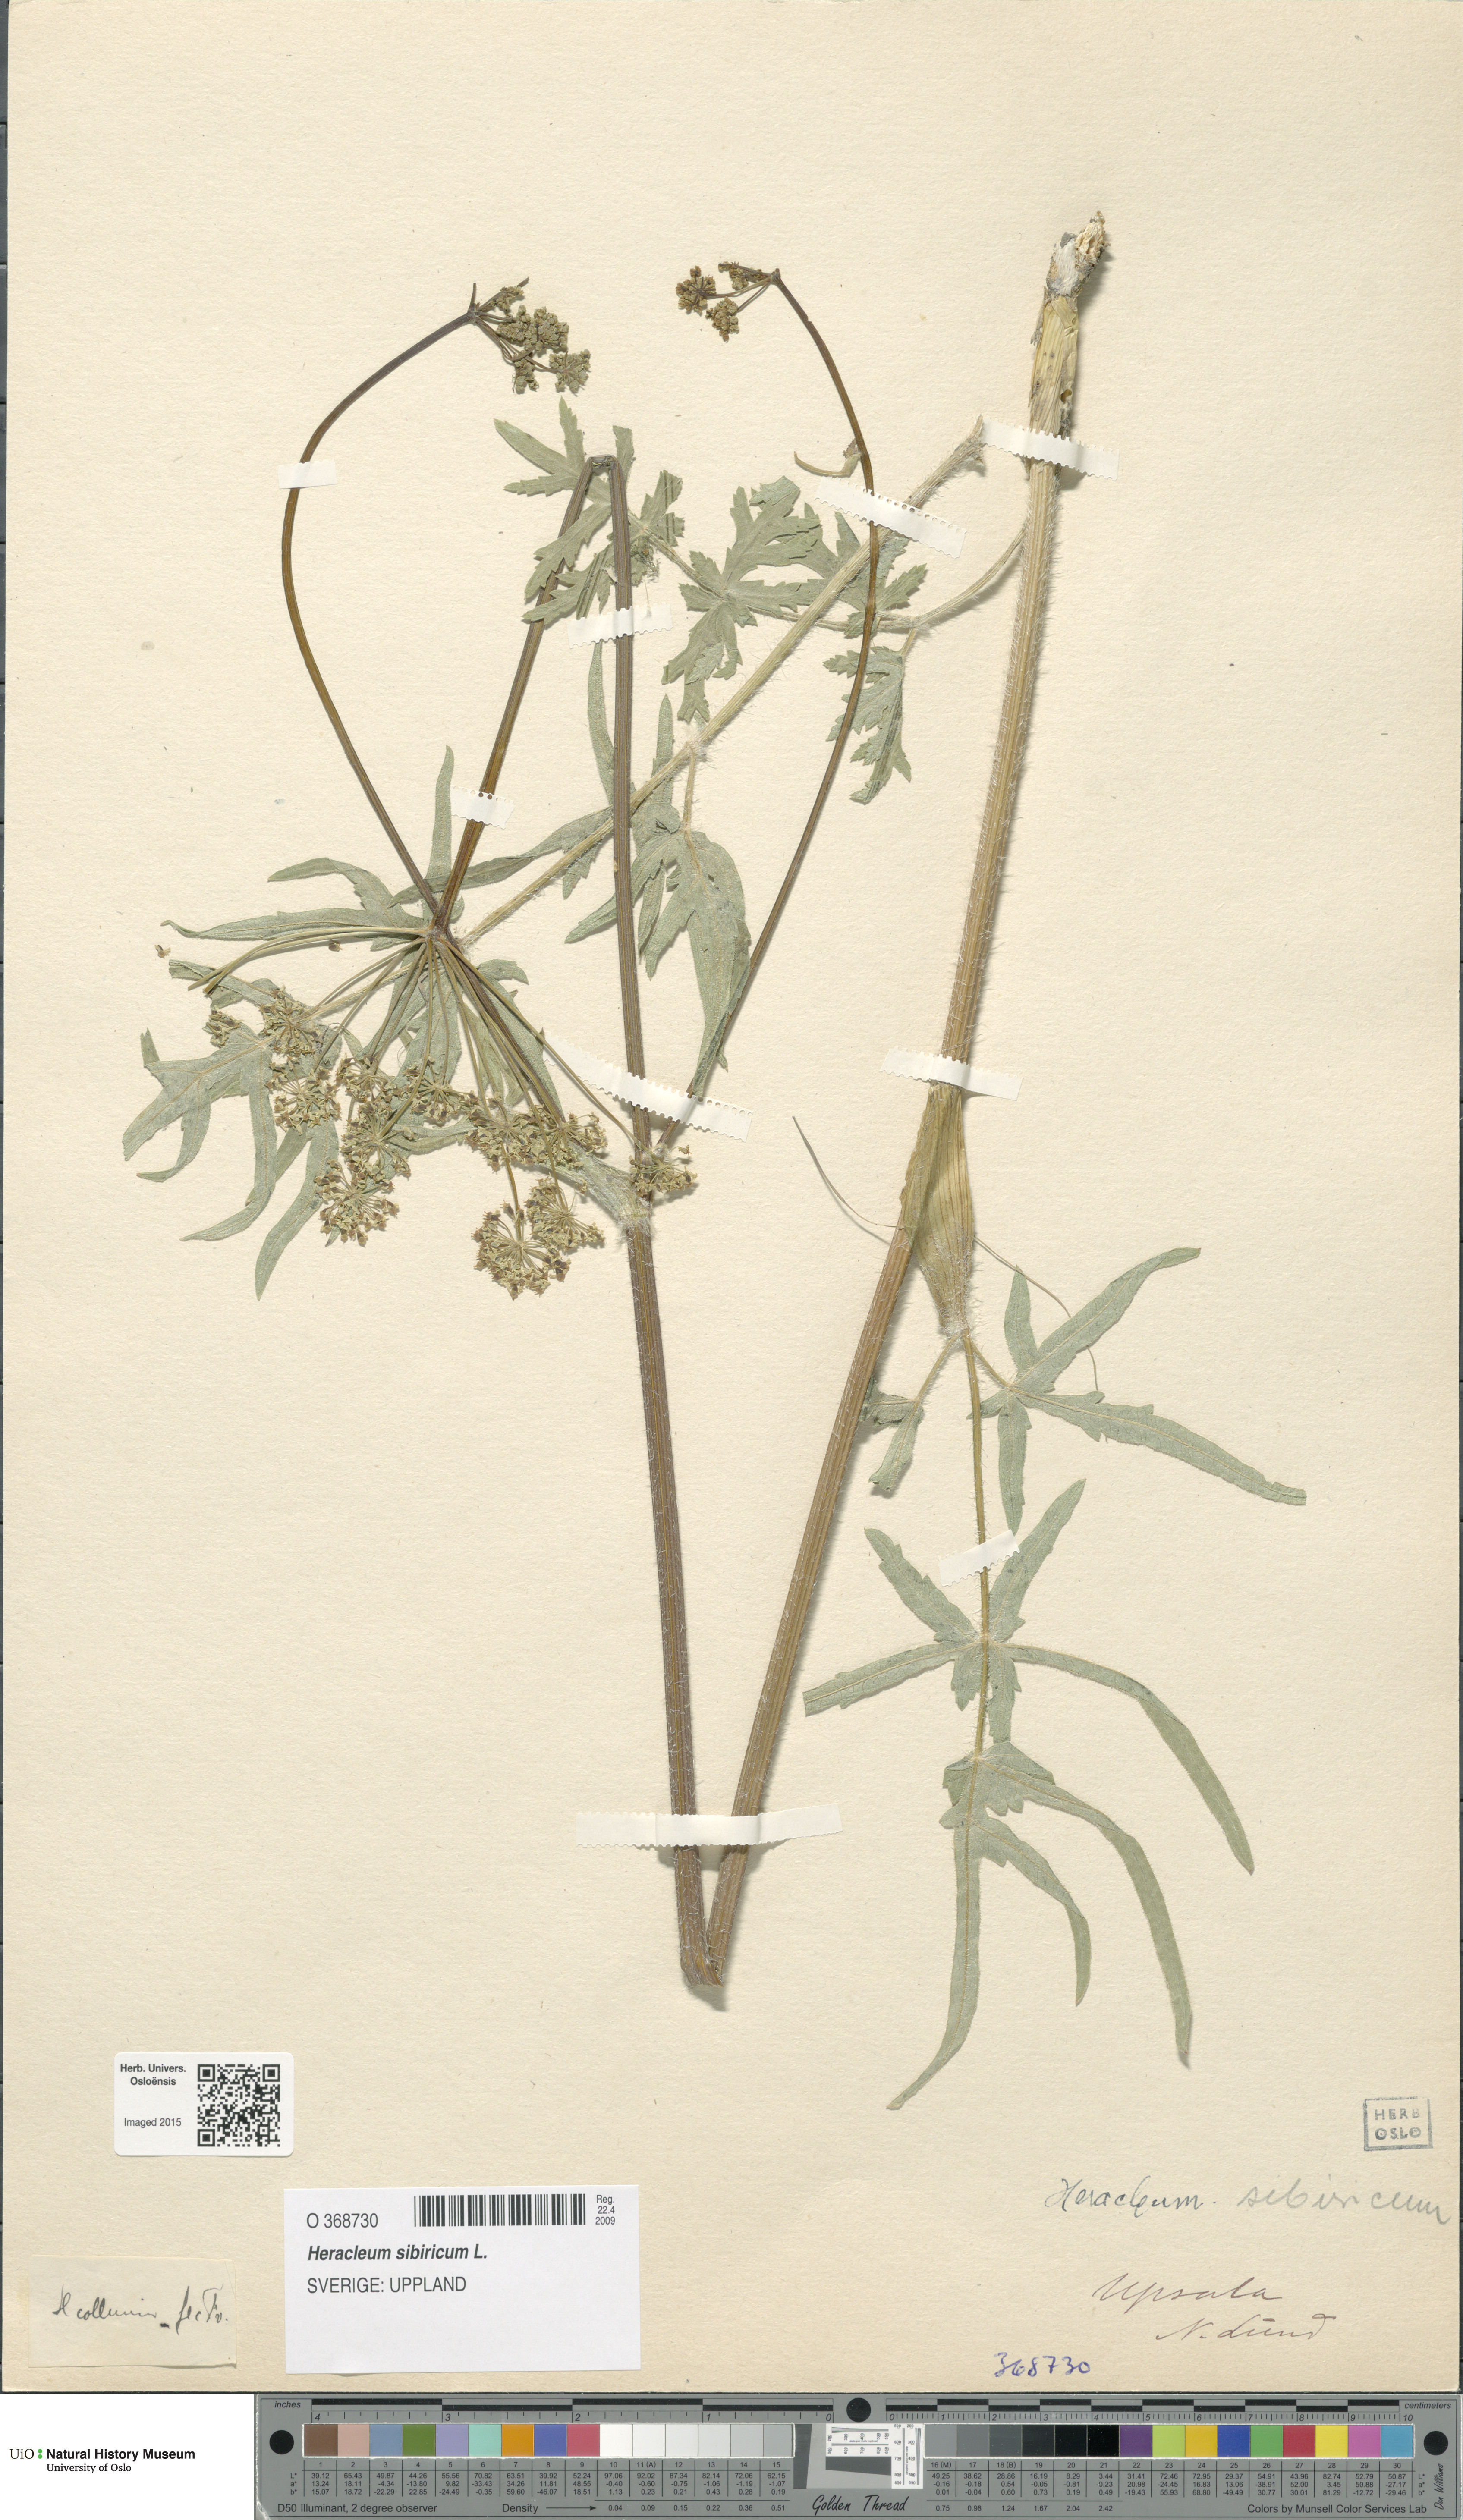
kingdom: Plantae
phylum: Tracheophyta
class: Magnoliopsida
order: Apiales
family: Apiaceae
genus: Heracleum
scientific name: Heracleum sphondylium
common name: Hogweed
